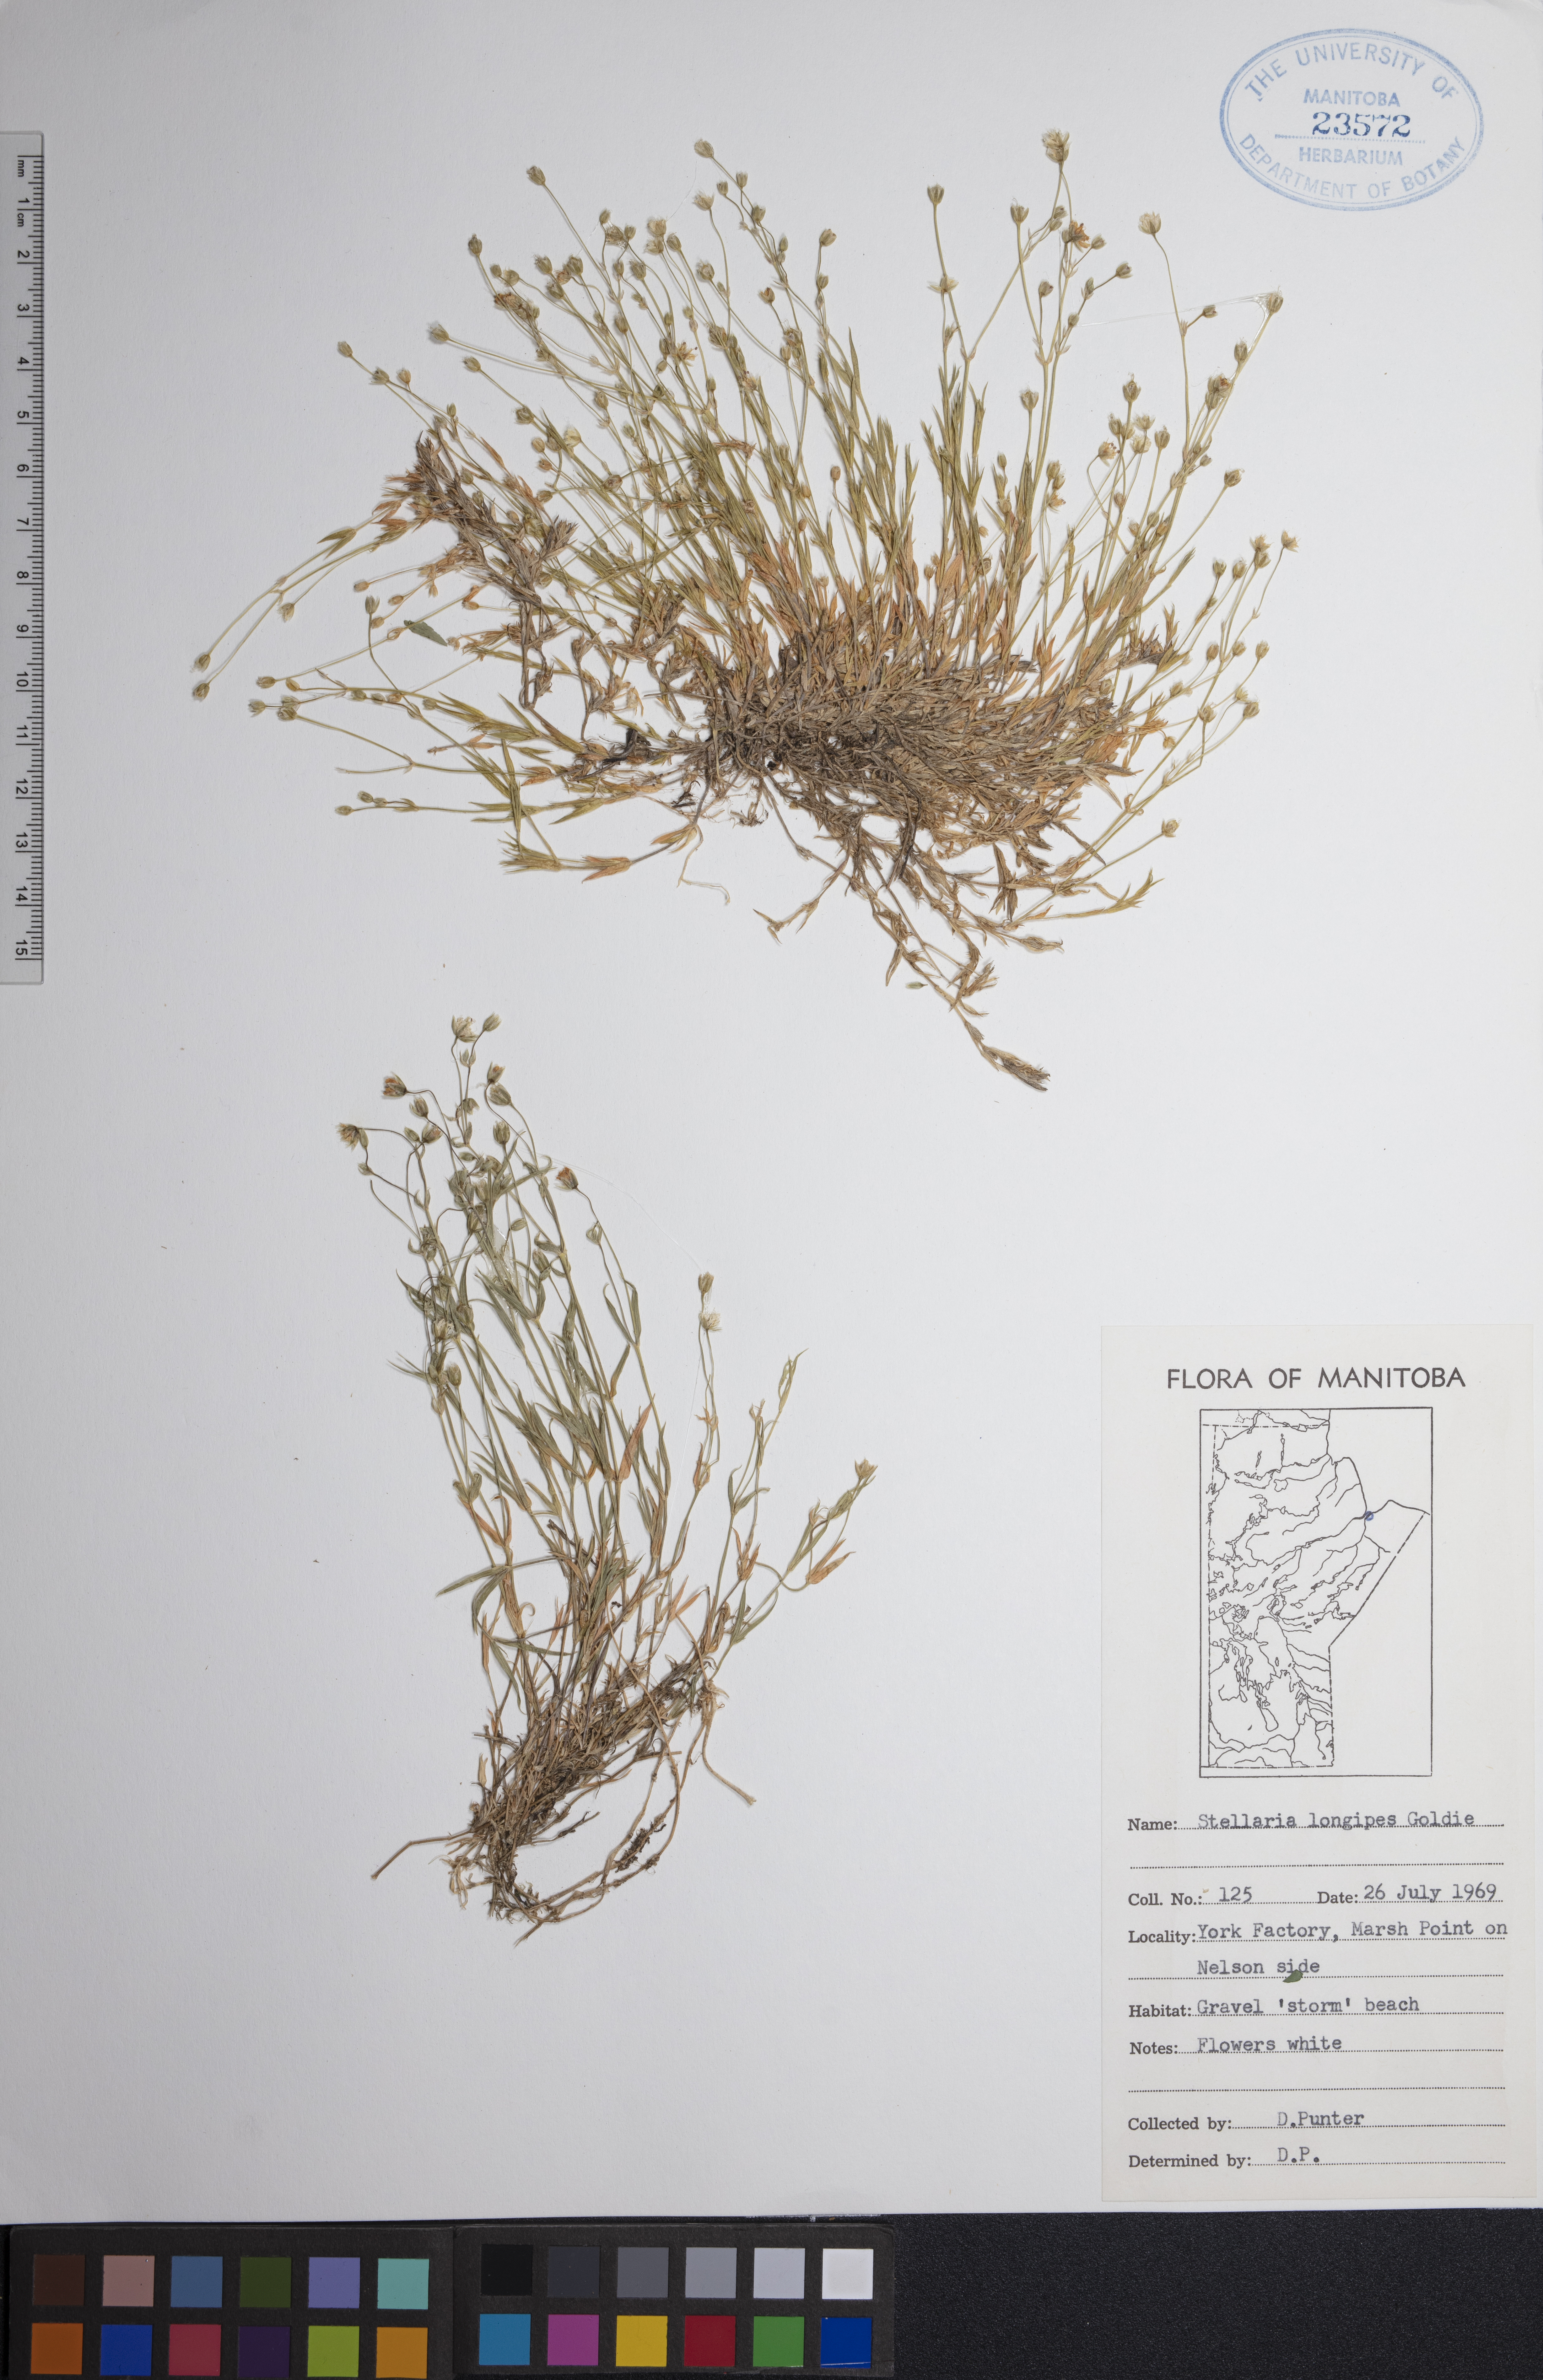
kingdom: Plantae
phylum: Tracheophyta
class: Magnoliopsida
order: Caryophyllales
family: Caryophyllaceae
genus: Stellaria
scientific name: Stellaria longipes
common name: Goldie's starwort
